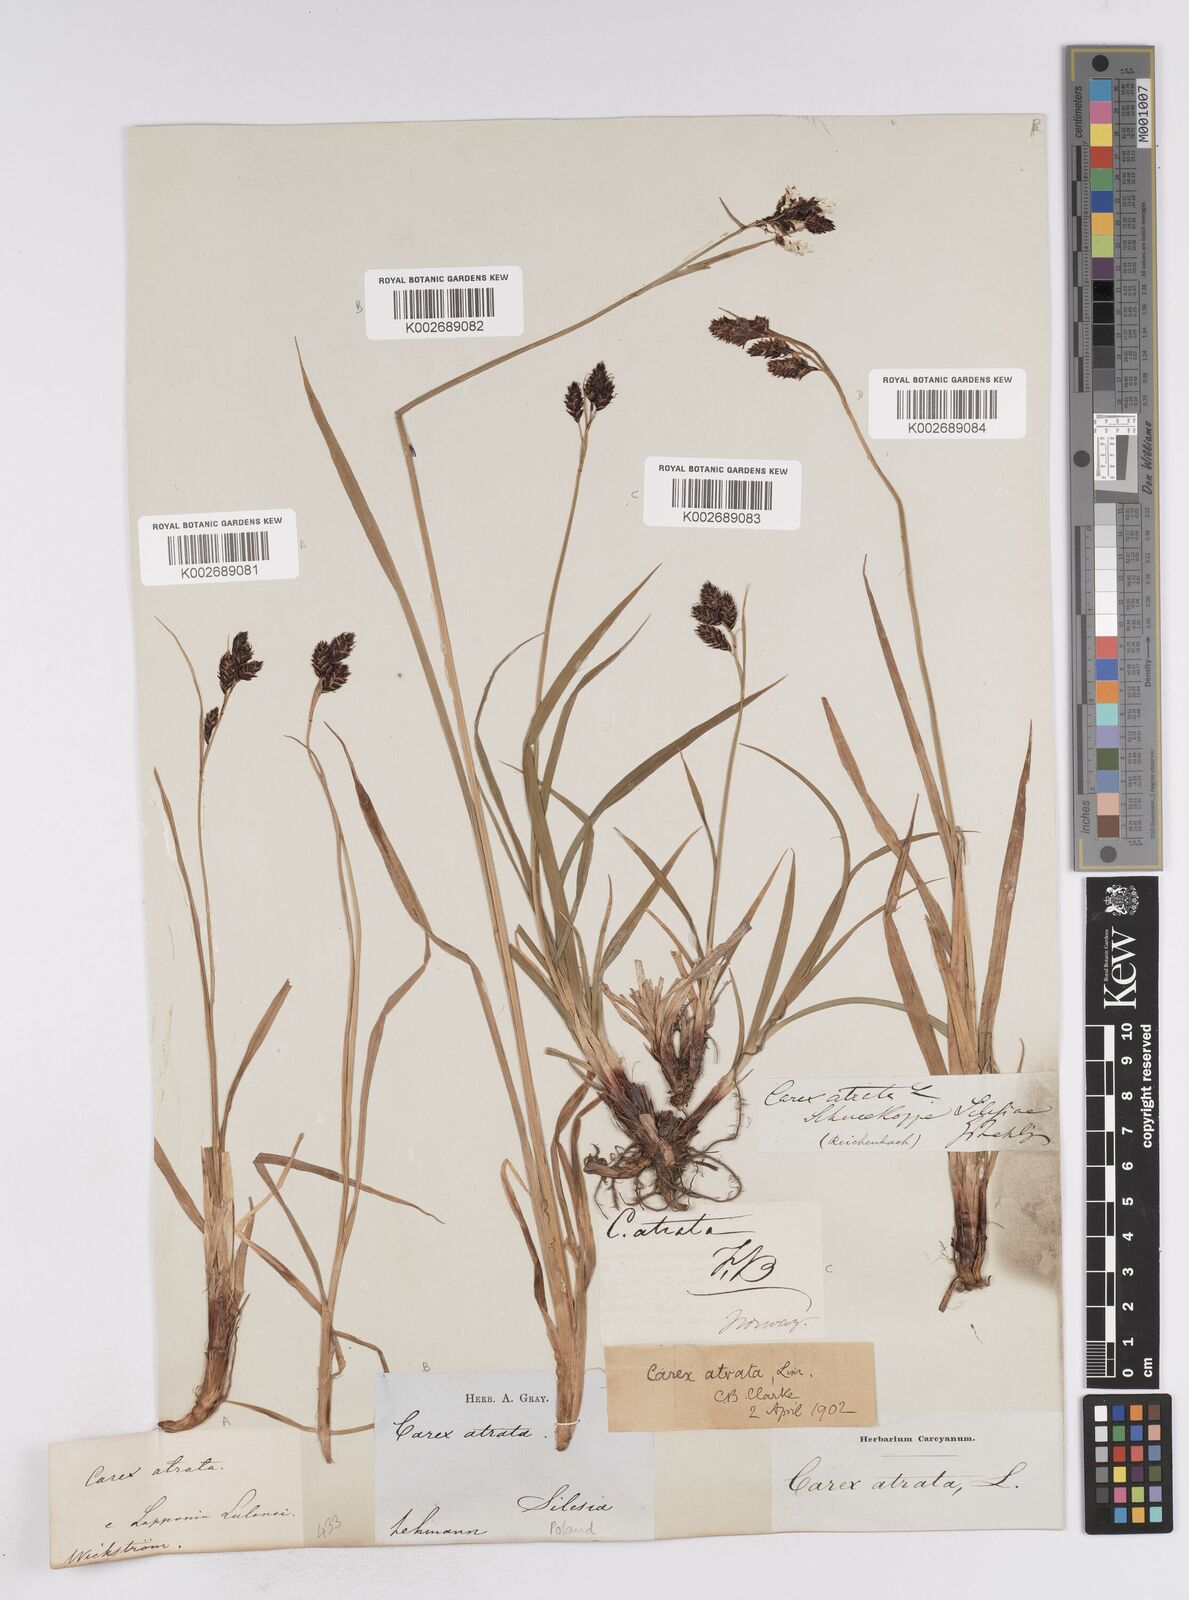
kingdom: Plantae
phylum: Tracheophyta
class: Liliopsida
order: Poales
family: Cyperaceae
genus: Carex
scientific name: Carex atrata
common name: Black alpine sedge
